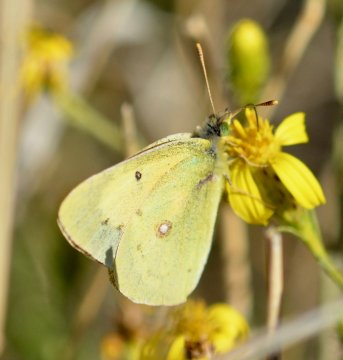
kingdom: Animalia
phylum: Arthropoda
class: Insecta
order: Lepidoptera
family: Pieridae
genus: Colias
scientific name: Colias philodice
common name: Clouded Sulphur
